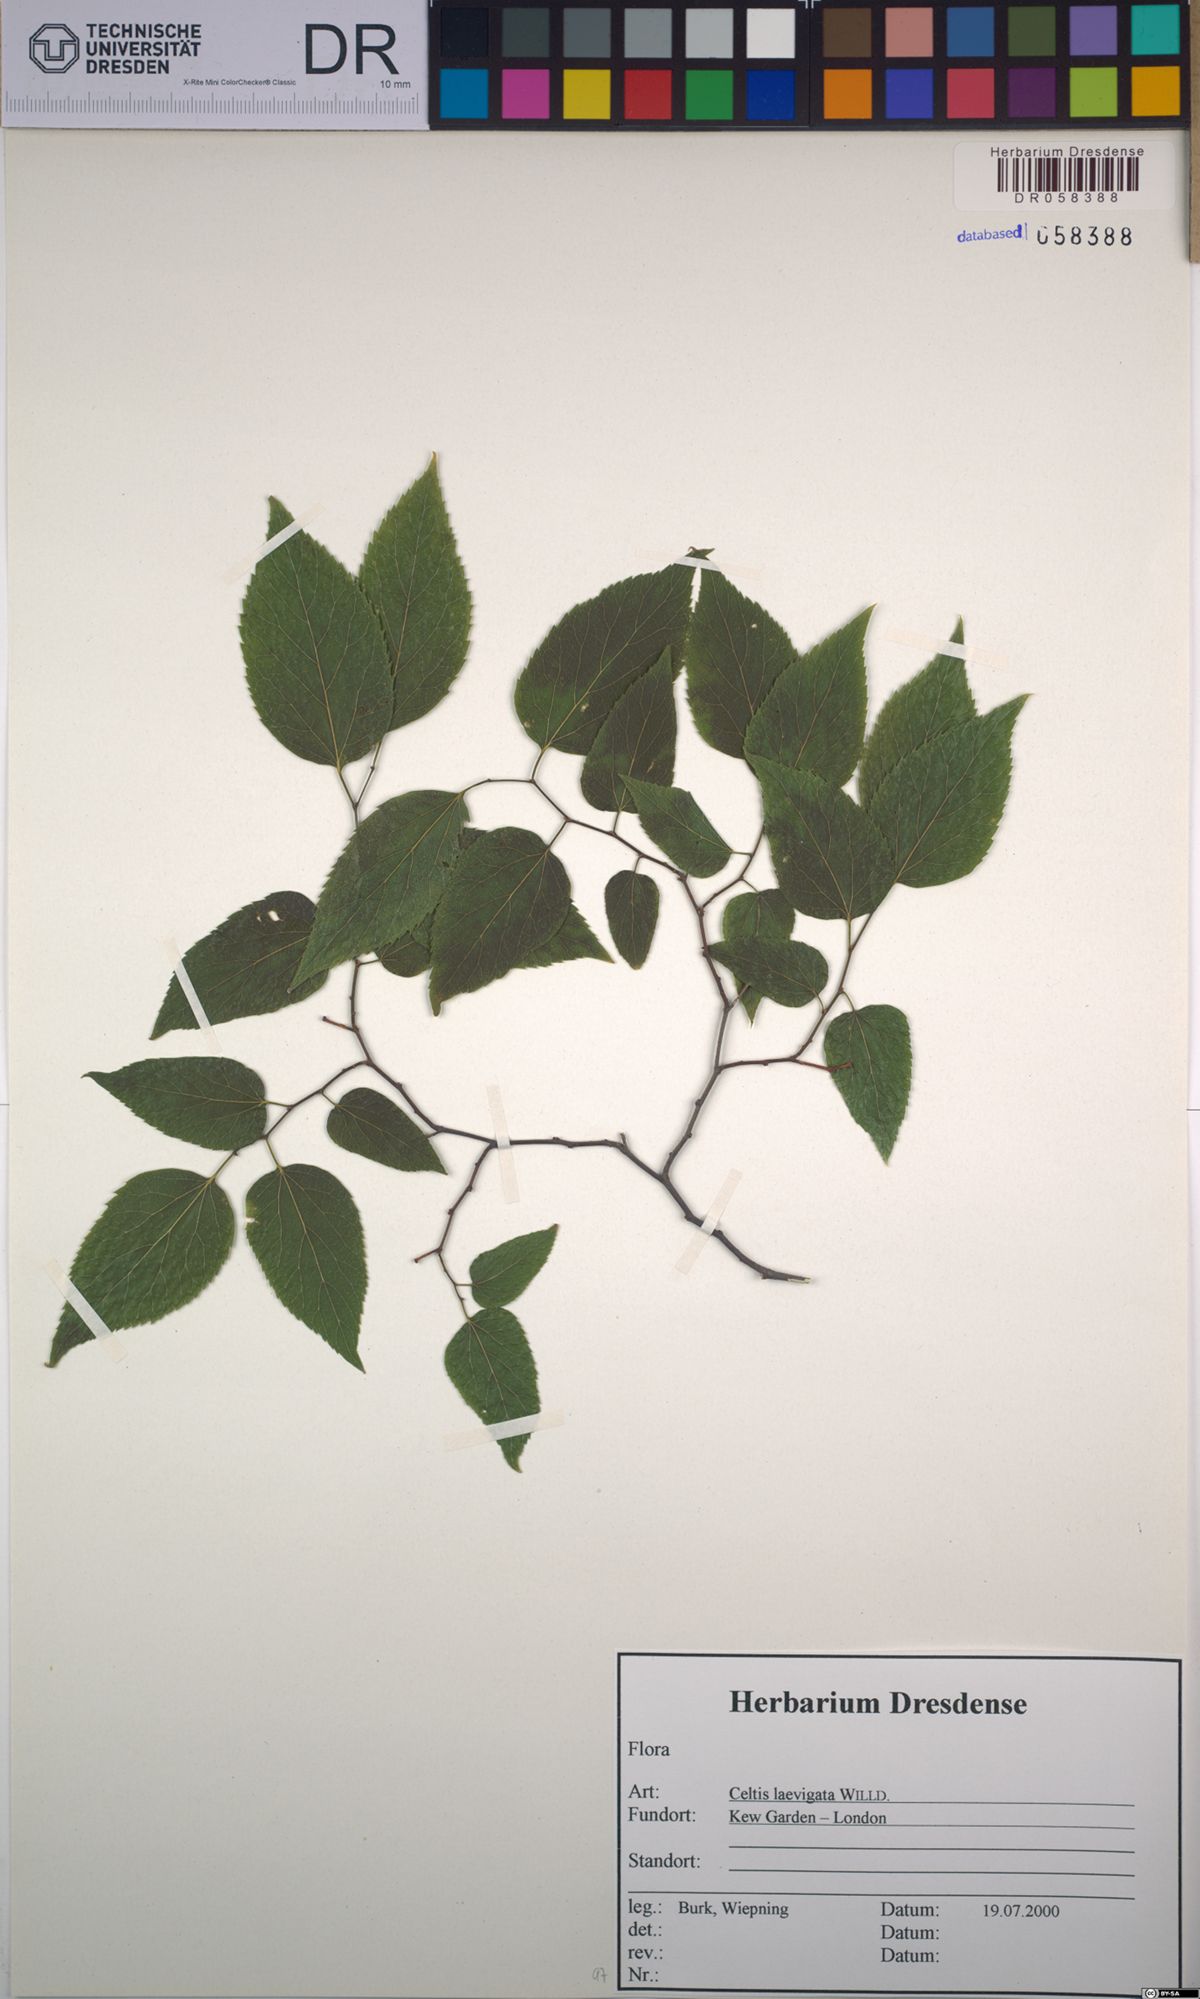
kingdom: Plantae
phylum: Tracheophyta
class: Magnoliopsida
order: Rosales
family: Cannabaceae
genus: Celtis
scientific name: Celtis laevigata
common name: Sugarberry
